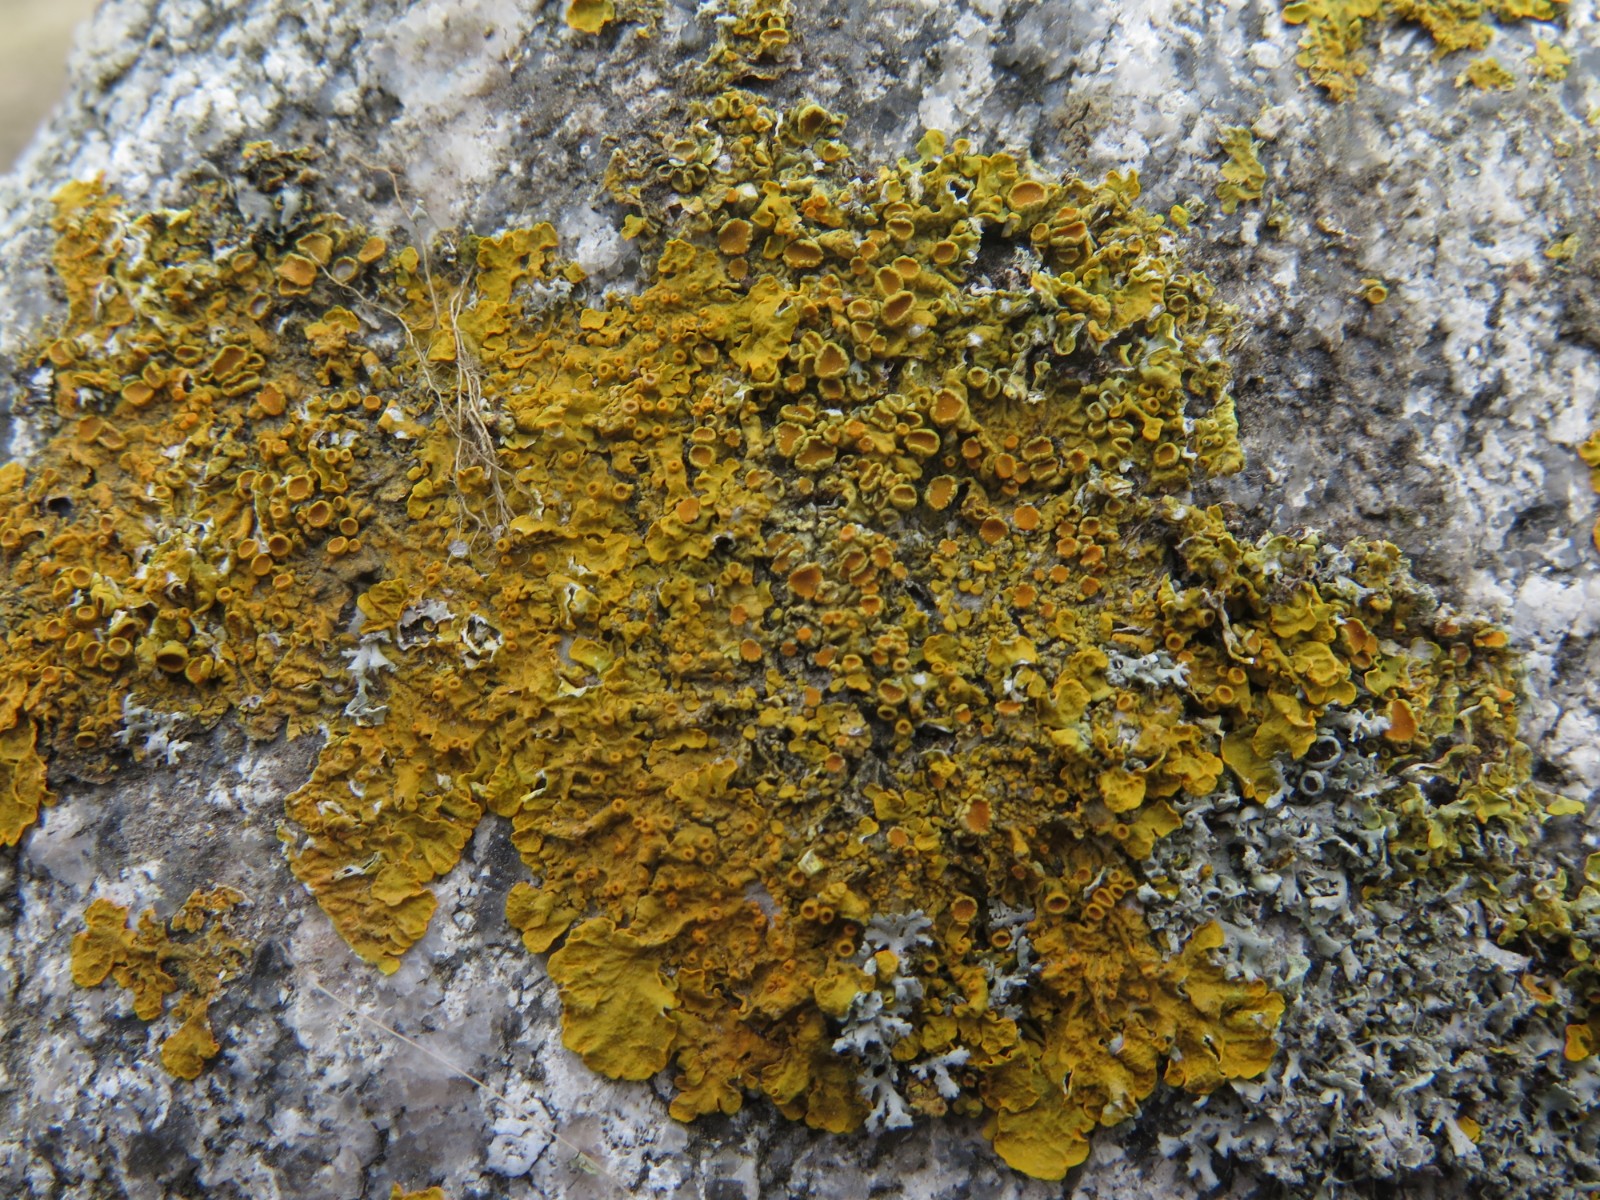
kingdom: Fungi
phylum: Ascomycota
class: Lecanoromycetes
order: Teloschistales
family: Teloschistaceae
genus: Xanthoria
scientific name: Xanthoria parietina
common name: almindelig væggelav
